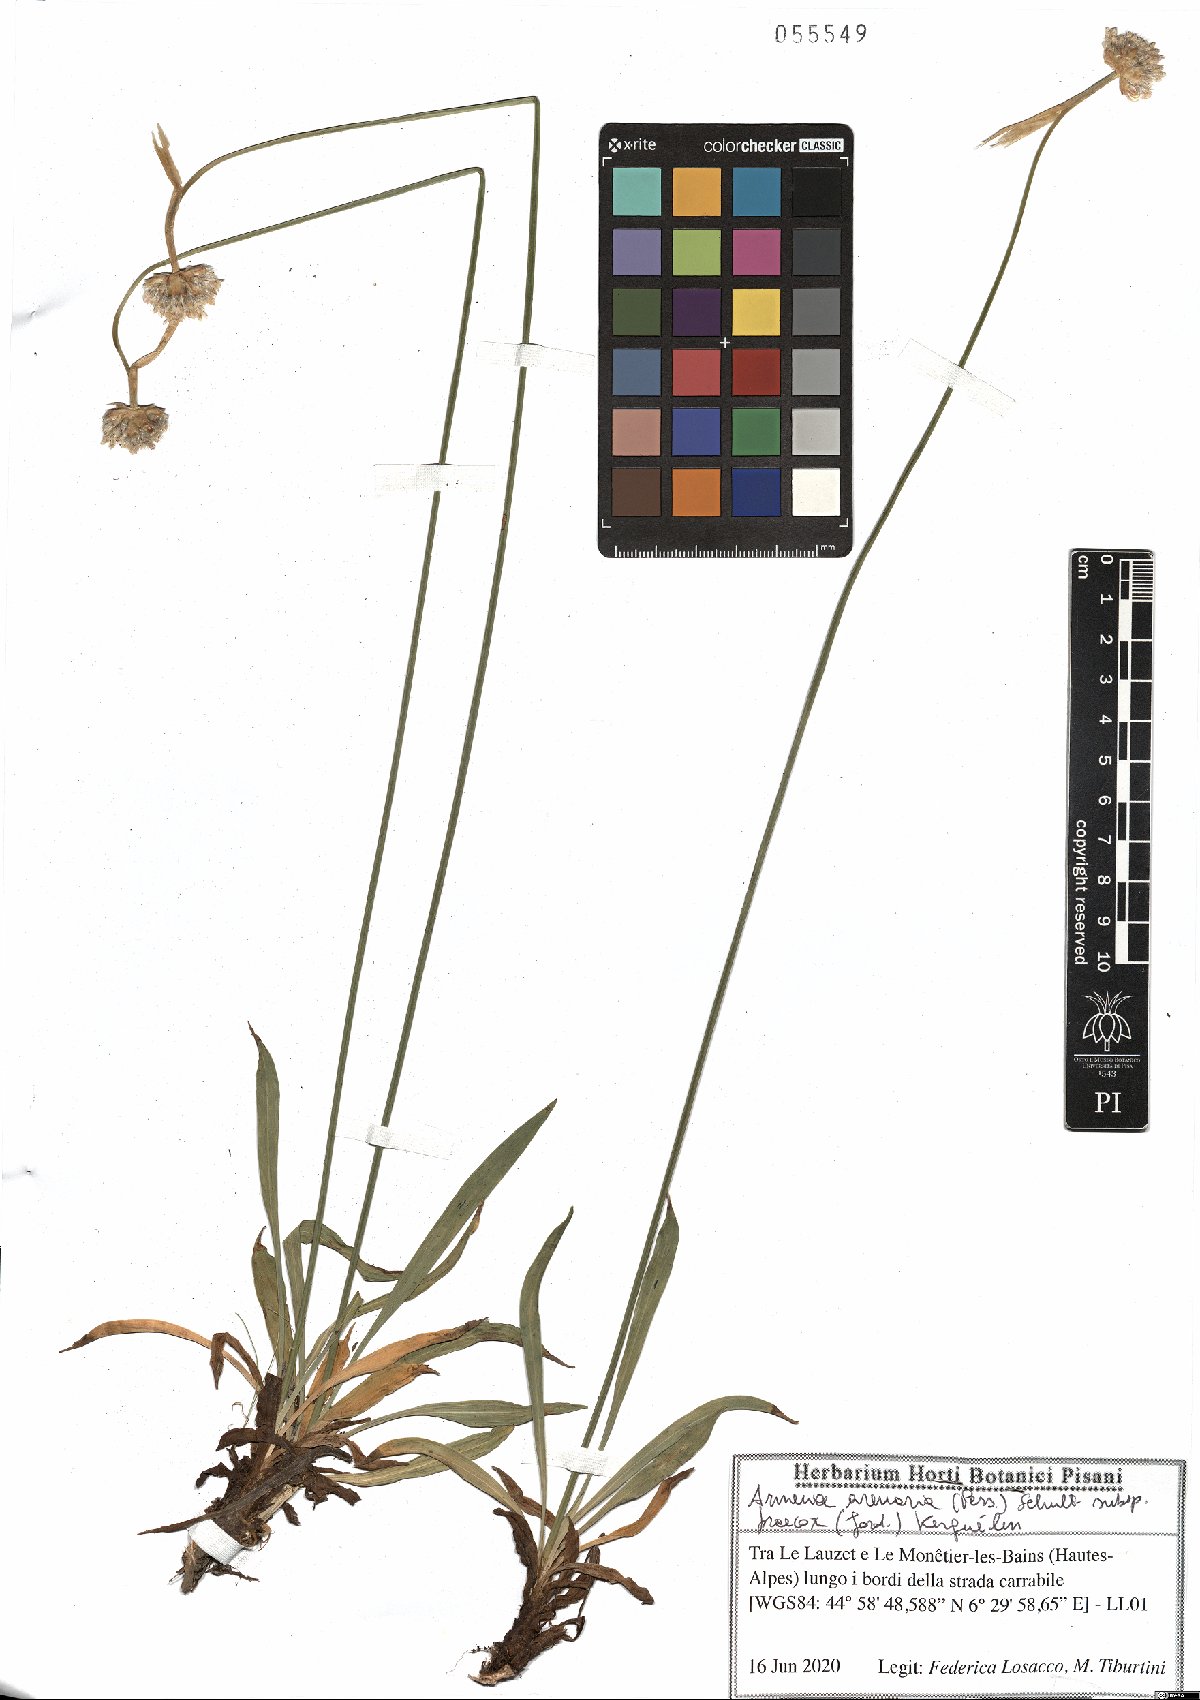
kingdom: Plantae
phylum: Tracheophyta
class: Magnoliopsida
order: Caryophyllales
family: Plumbaginaceae
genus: Armeria
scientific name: Armeria arenaria
